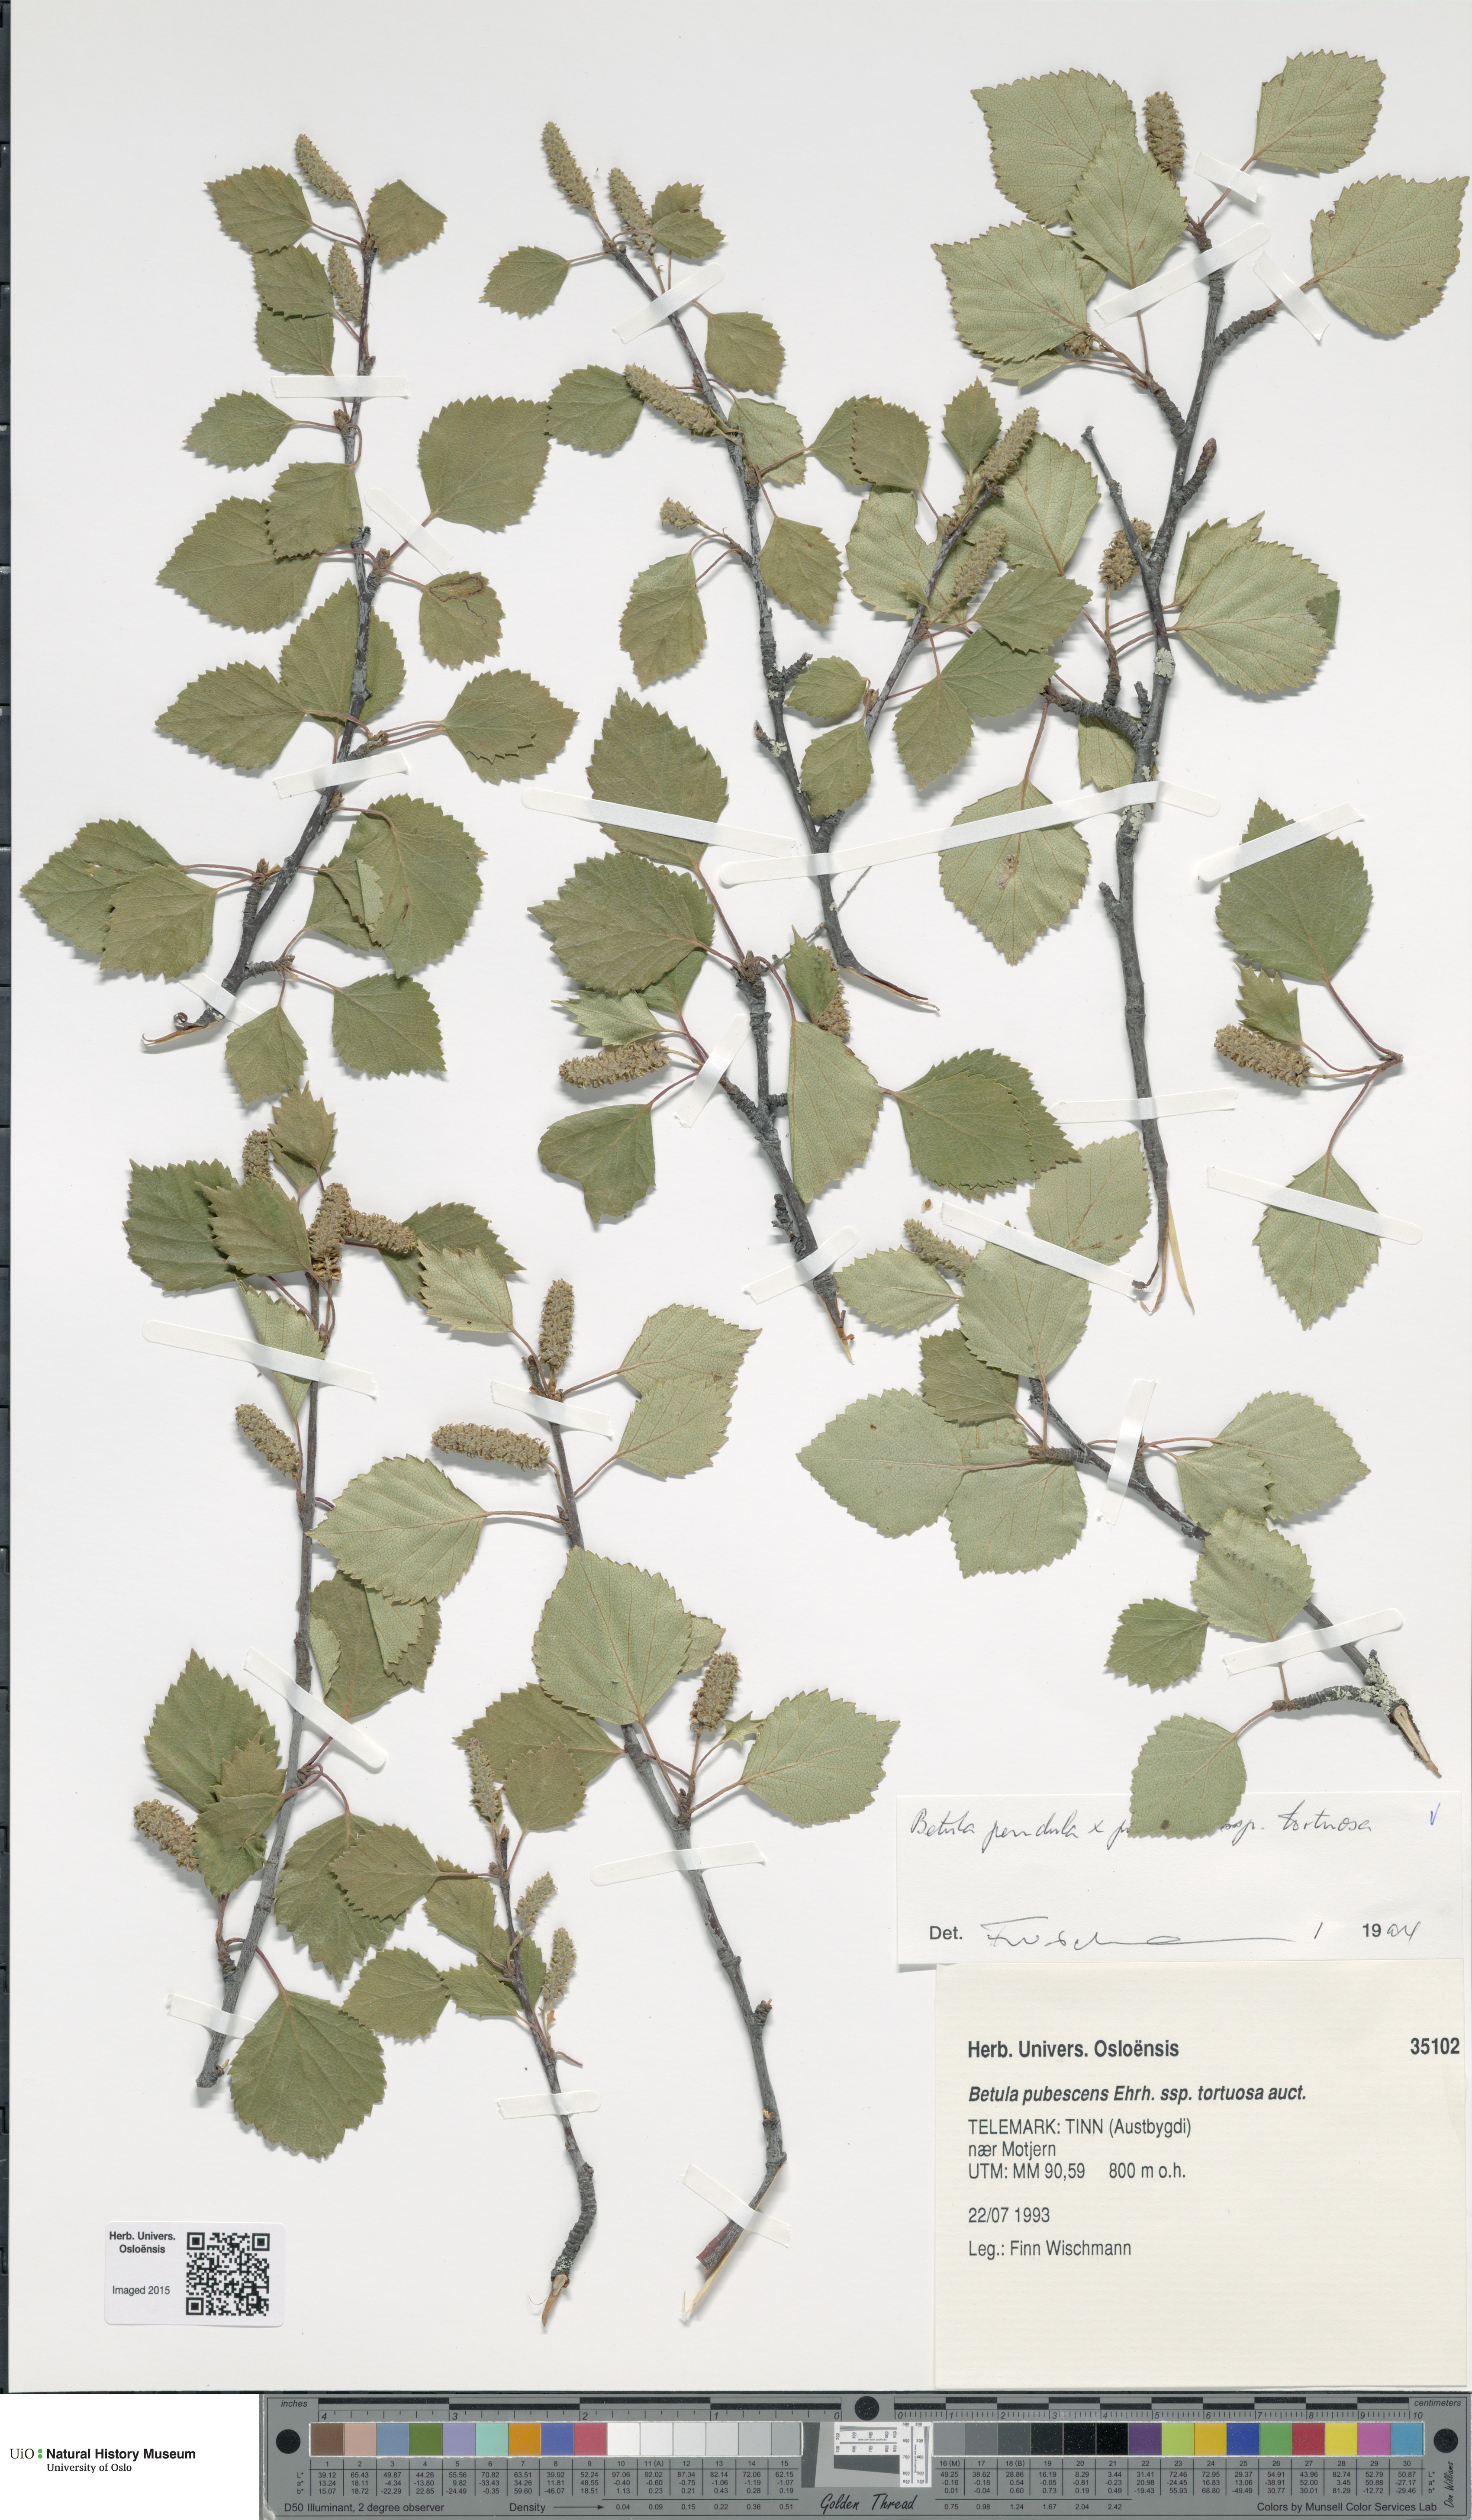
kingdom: Plantae
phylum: Tracheophyta
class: Magnoliopsida
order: Fagales
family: Betulaceae
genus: Betula
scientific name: Betula
